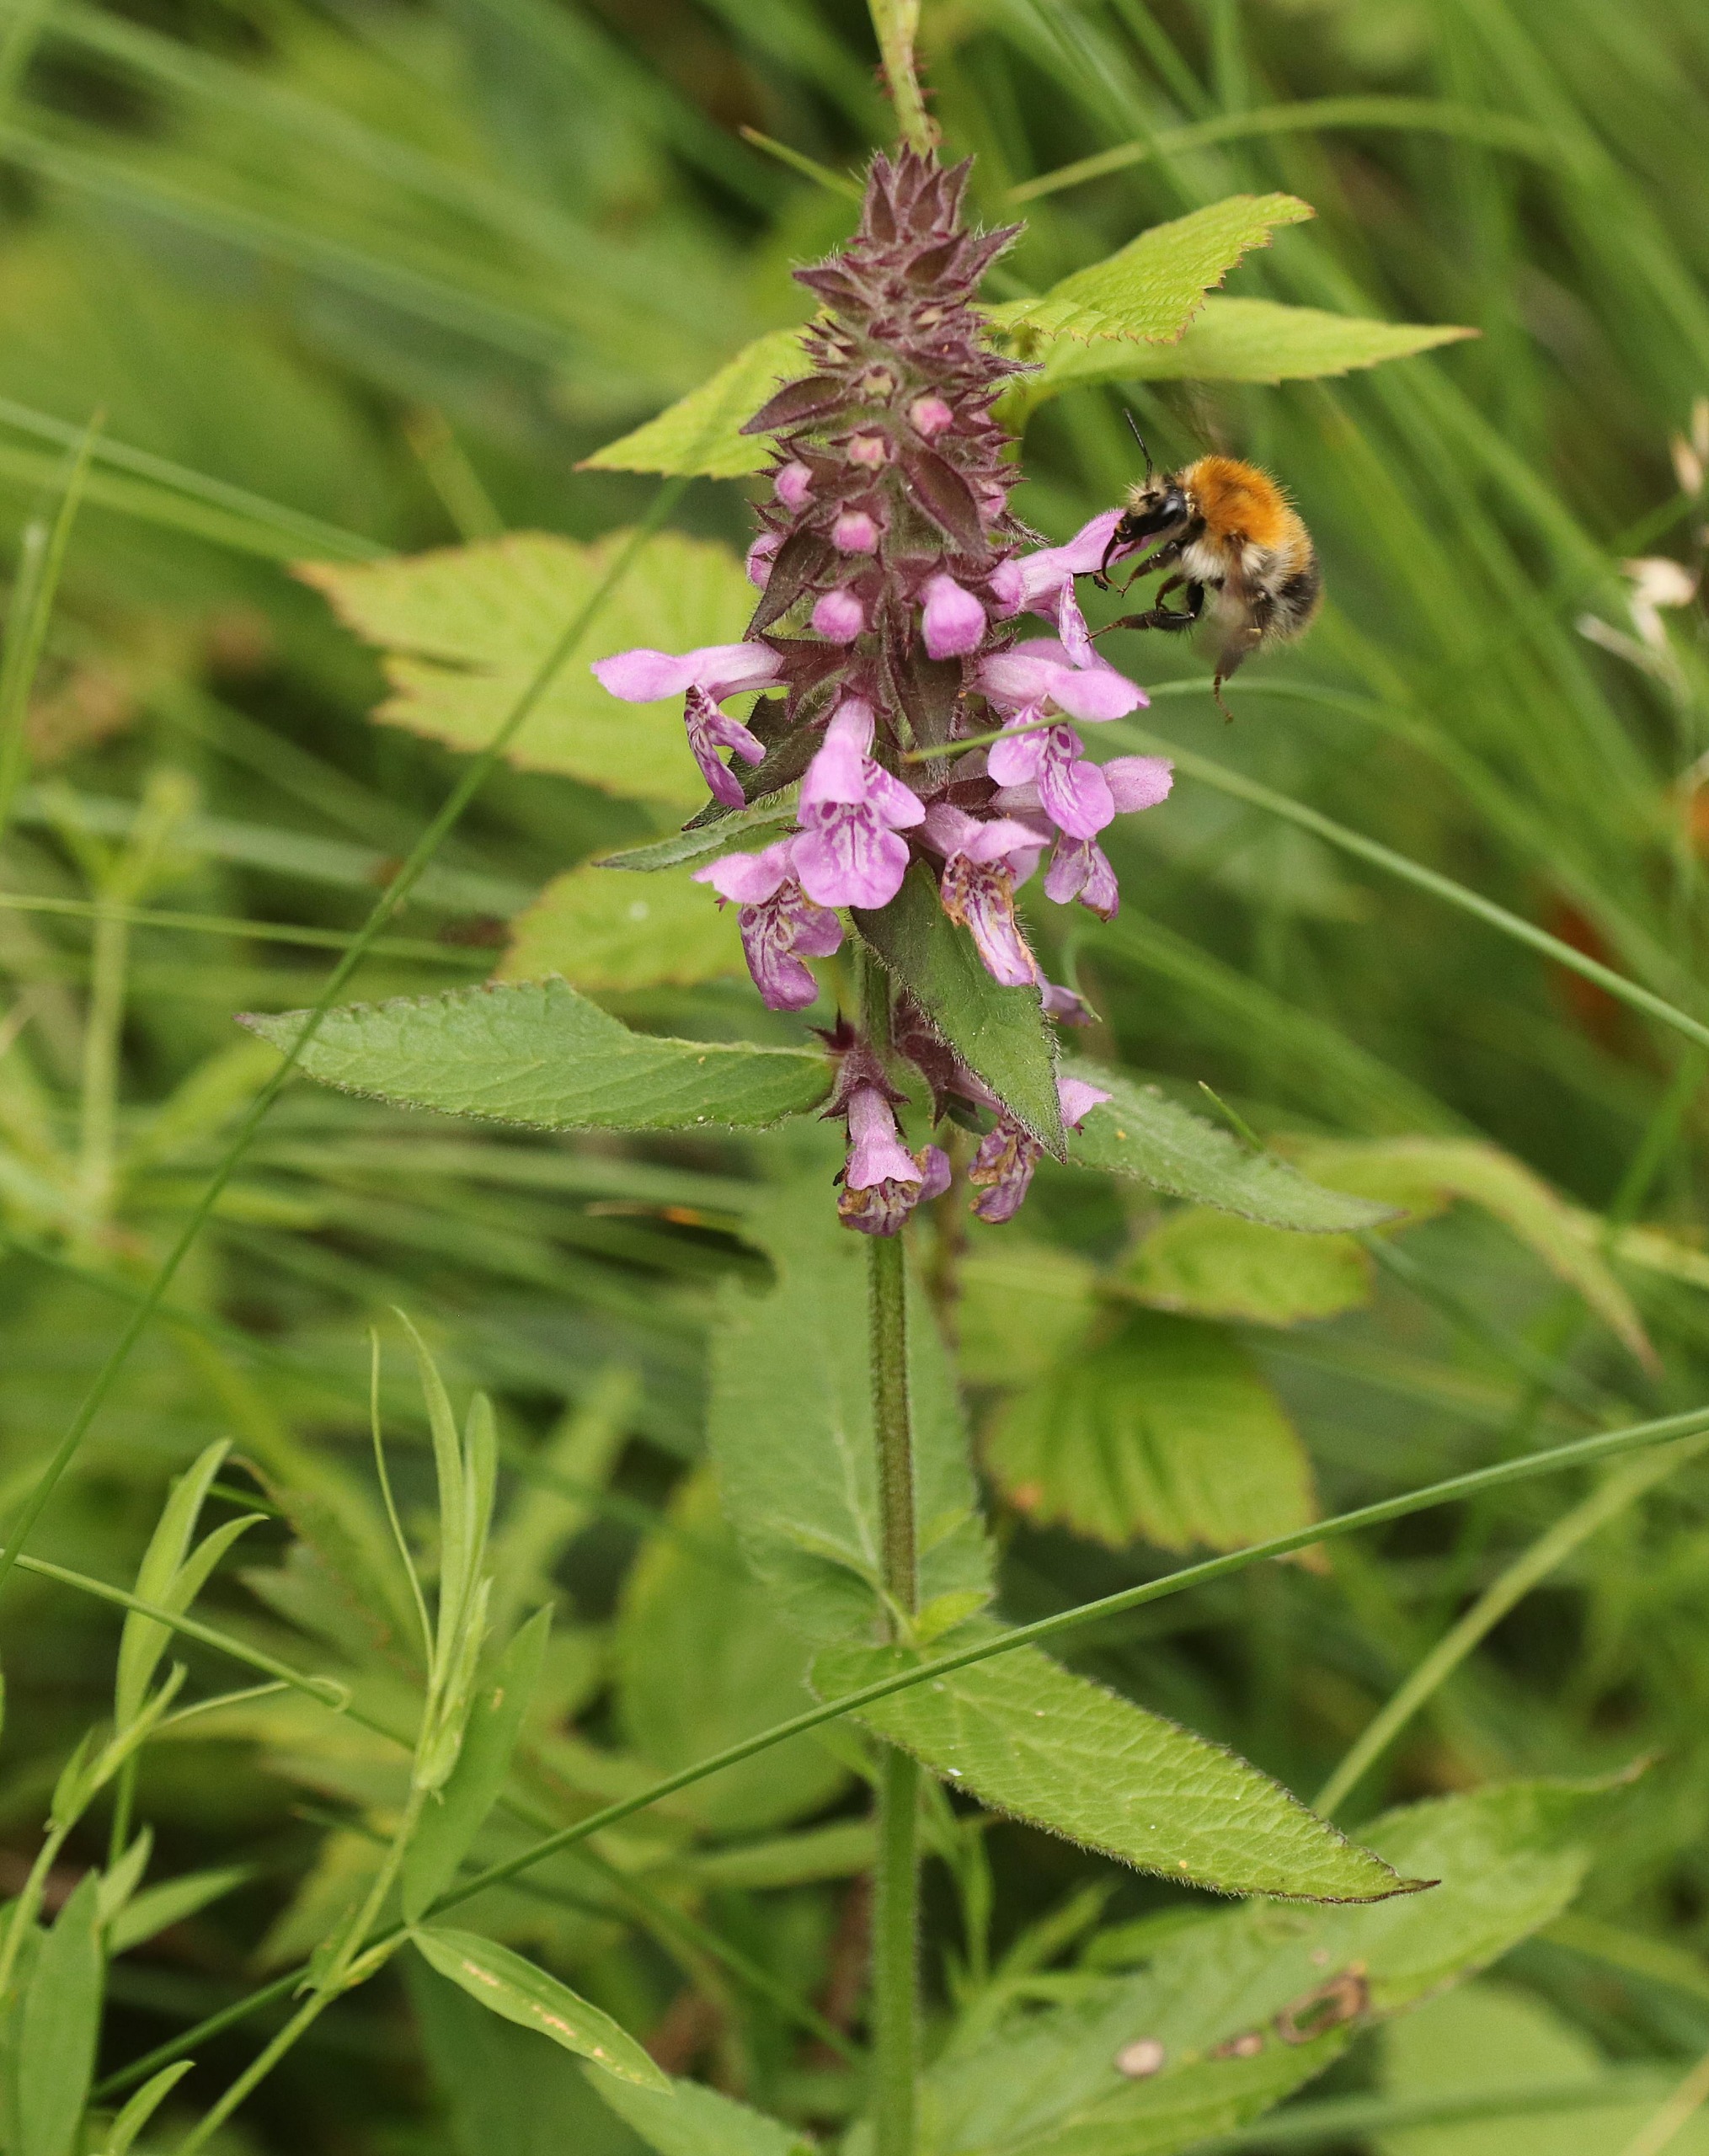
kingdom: Plantae
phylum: Tracheophyta
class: Magnoliopsida
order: Lamiales
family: Lamiaceae
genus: Stachys
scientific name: Stachys palustris
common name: Kær-galtetand
